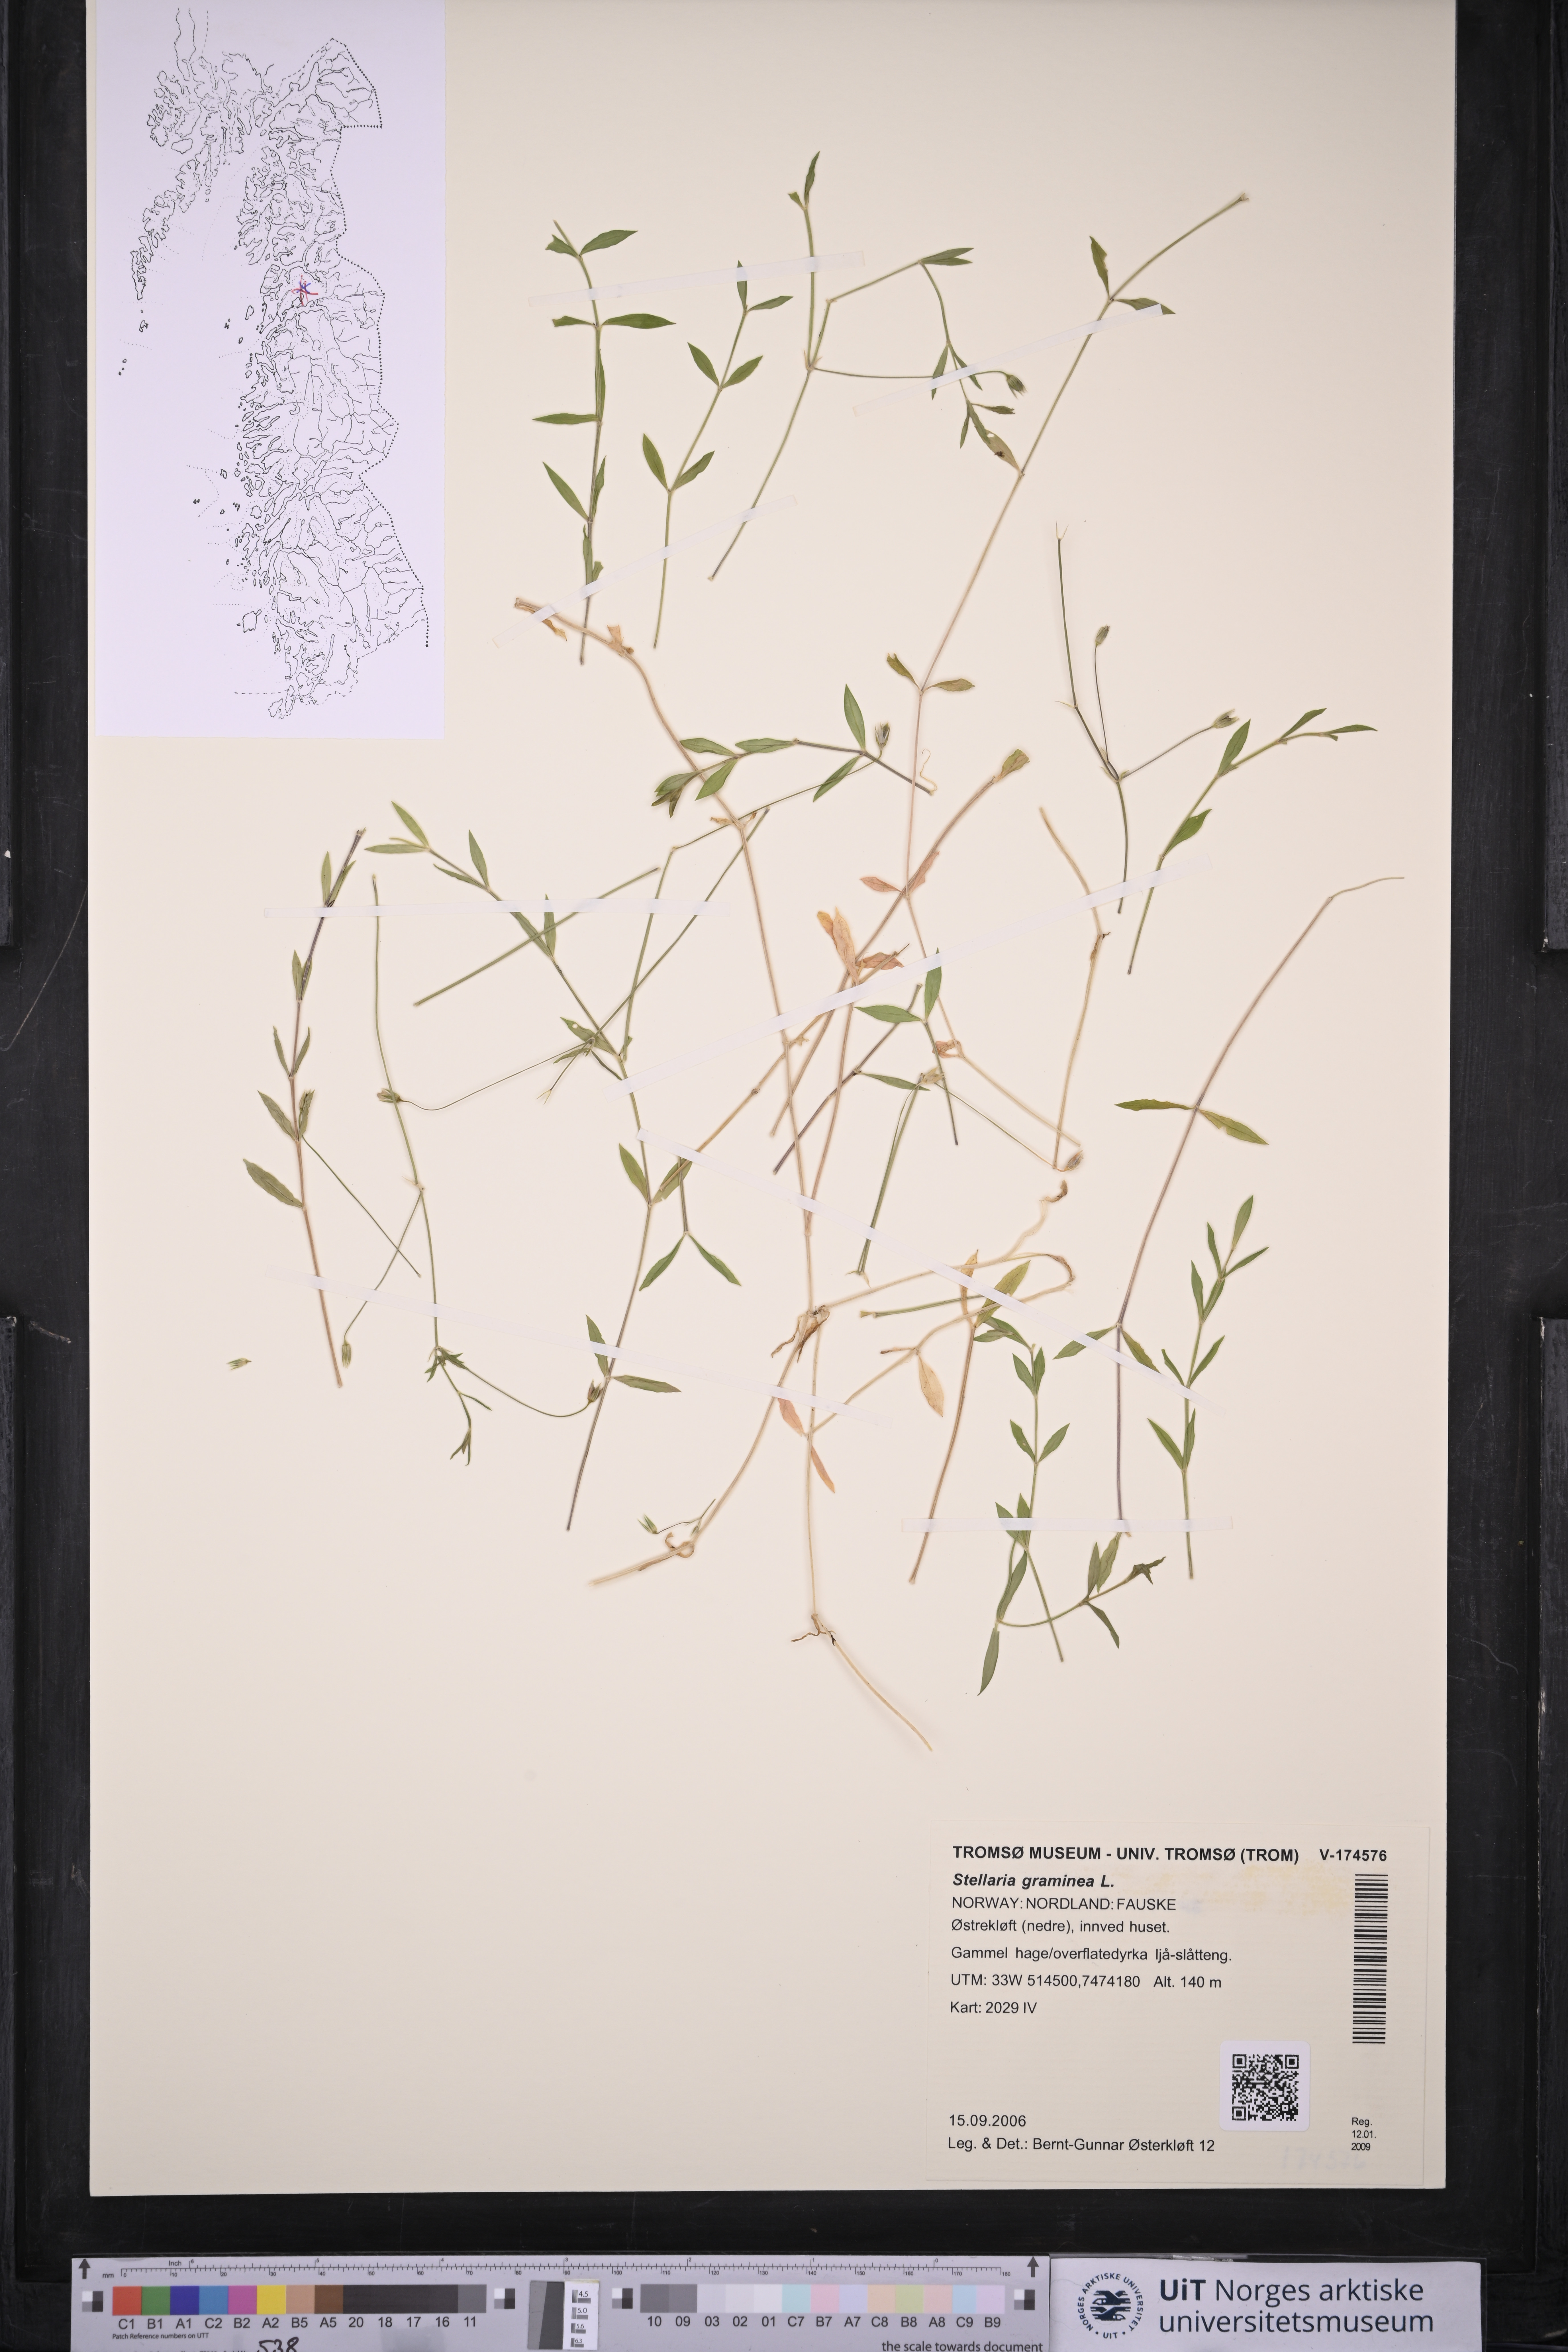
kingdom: Plantae
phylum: Tracheophyta
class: Magnoliopsida
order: Caryophyllales
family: Caryophyllaceae
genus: Stellaria
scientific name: Stellaria graminea
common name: Grass-like starwort
